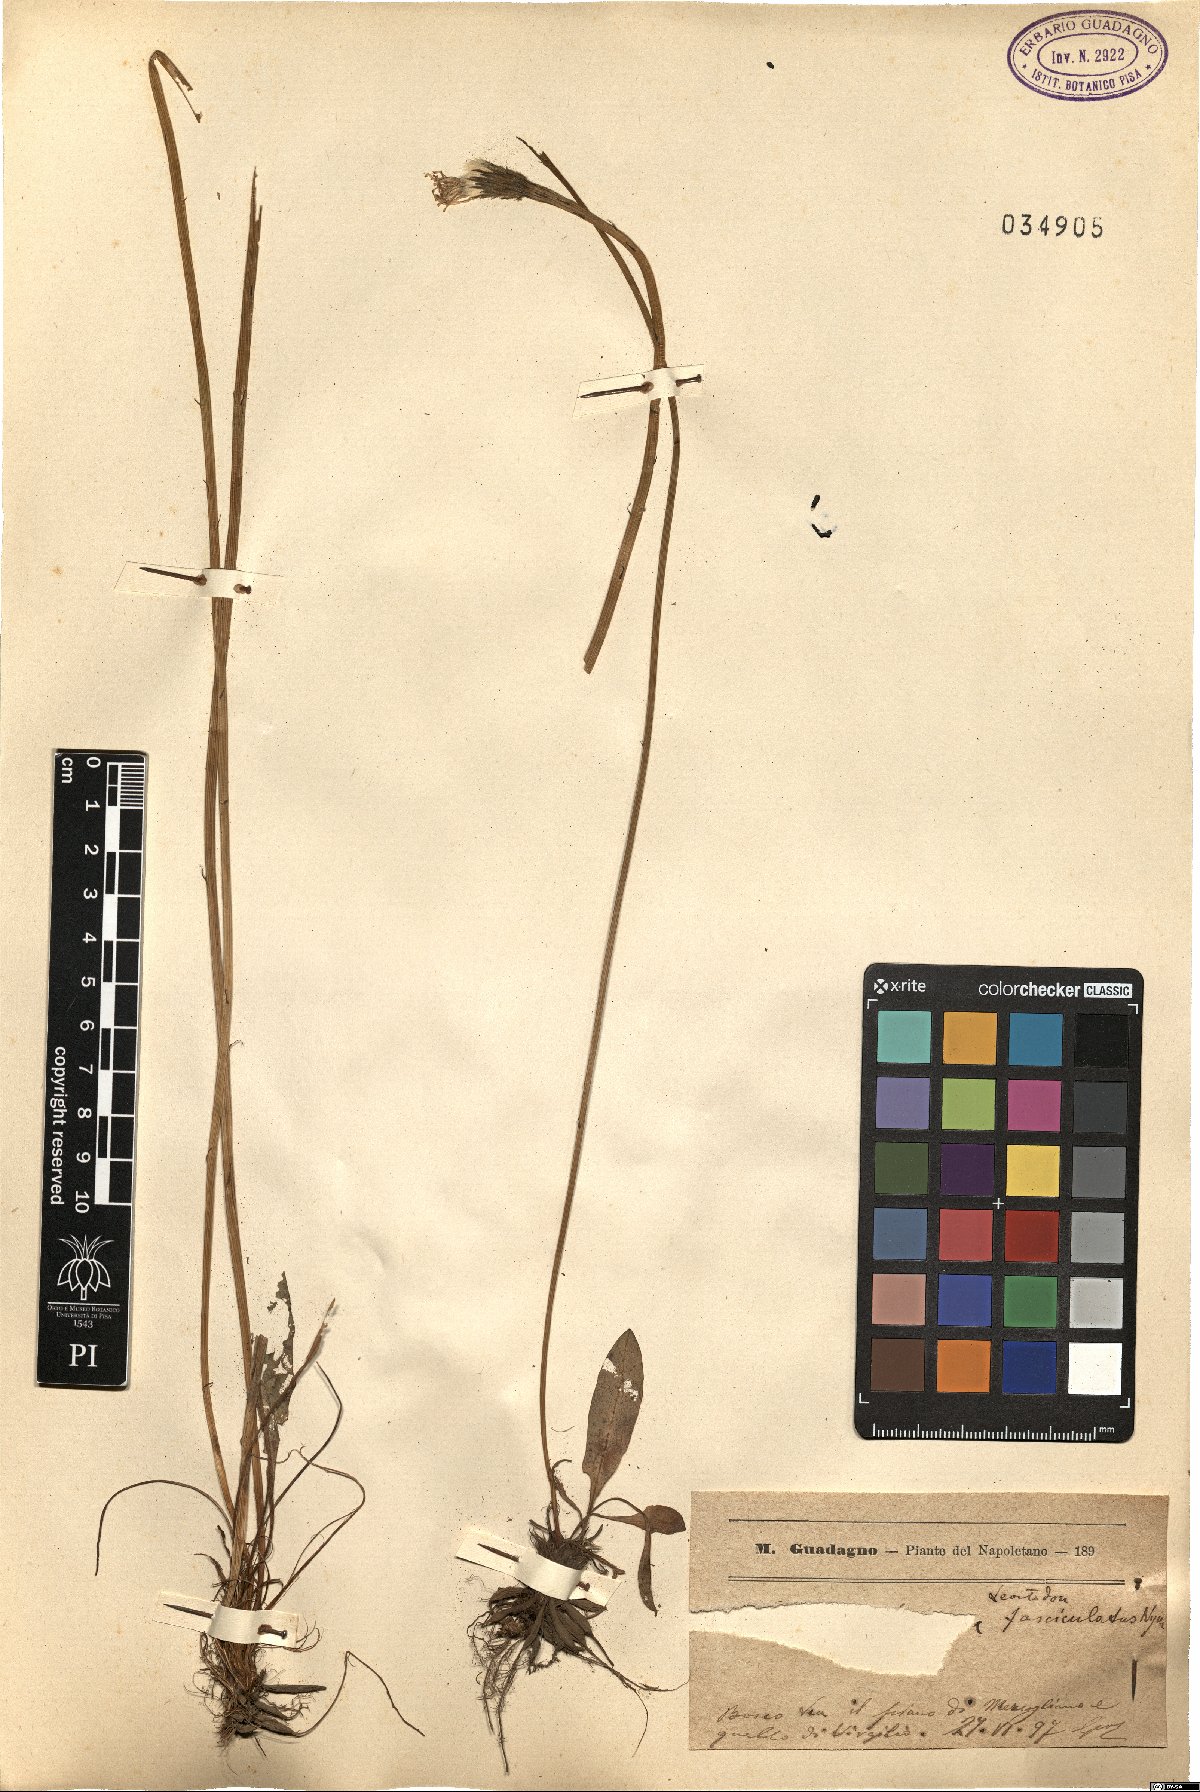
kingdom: Plantae
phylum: Tracheophyta
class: Magnoliopsida
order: Asterales
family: Asteraceae
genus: Scorzoneroides
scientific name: Scorzoneroides cichoriacea
